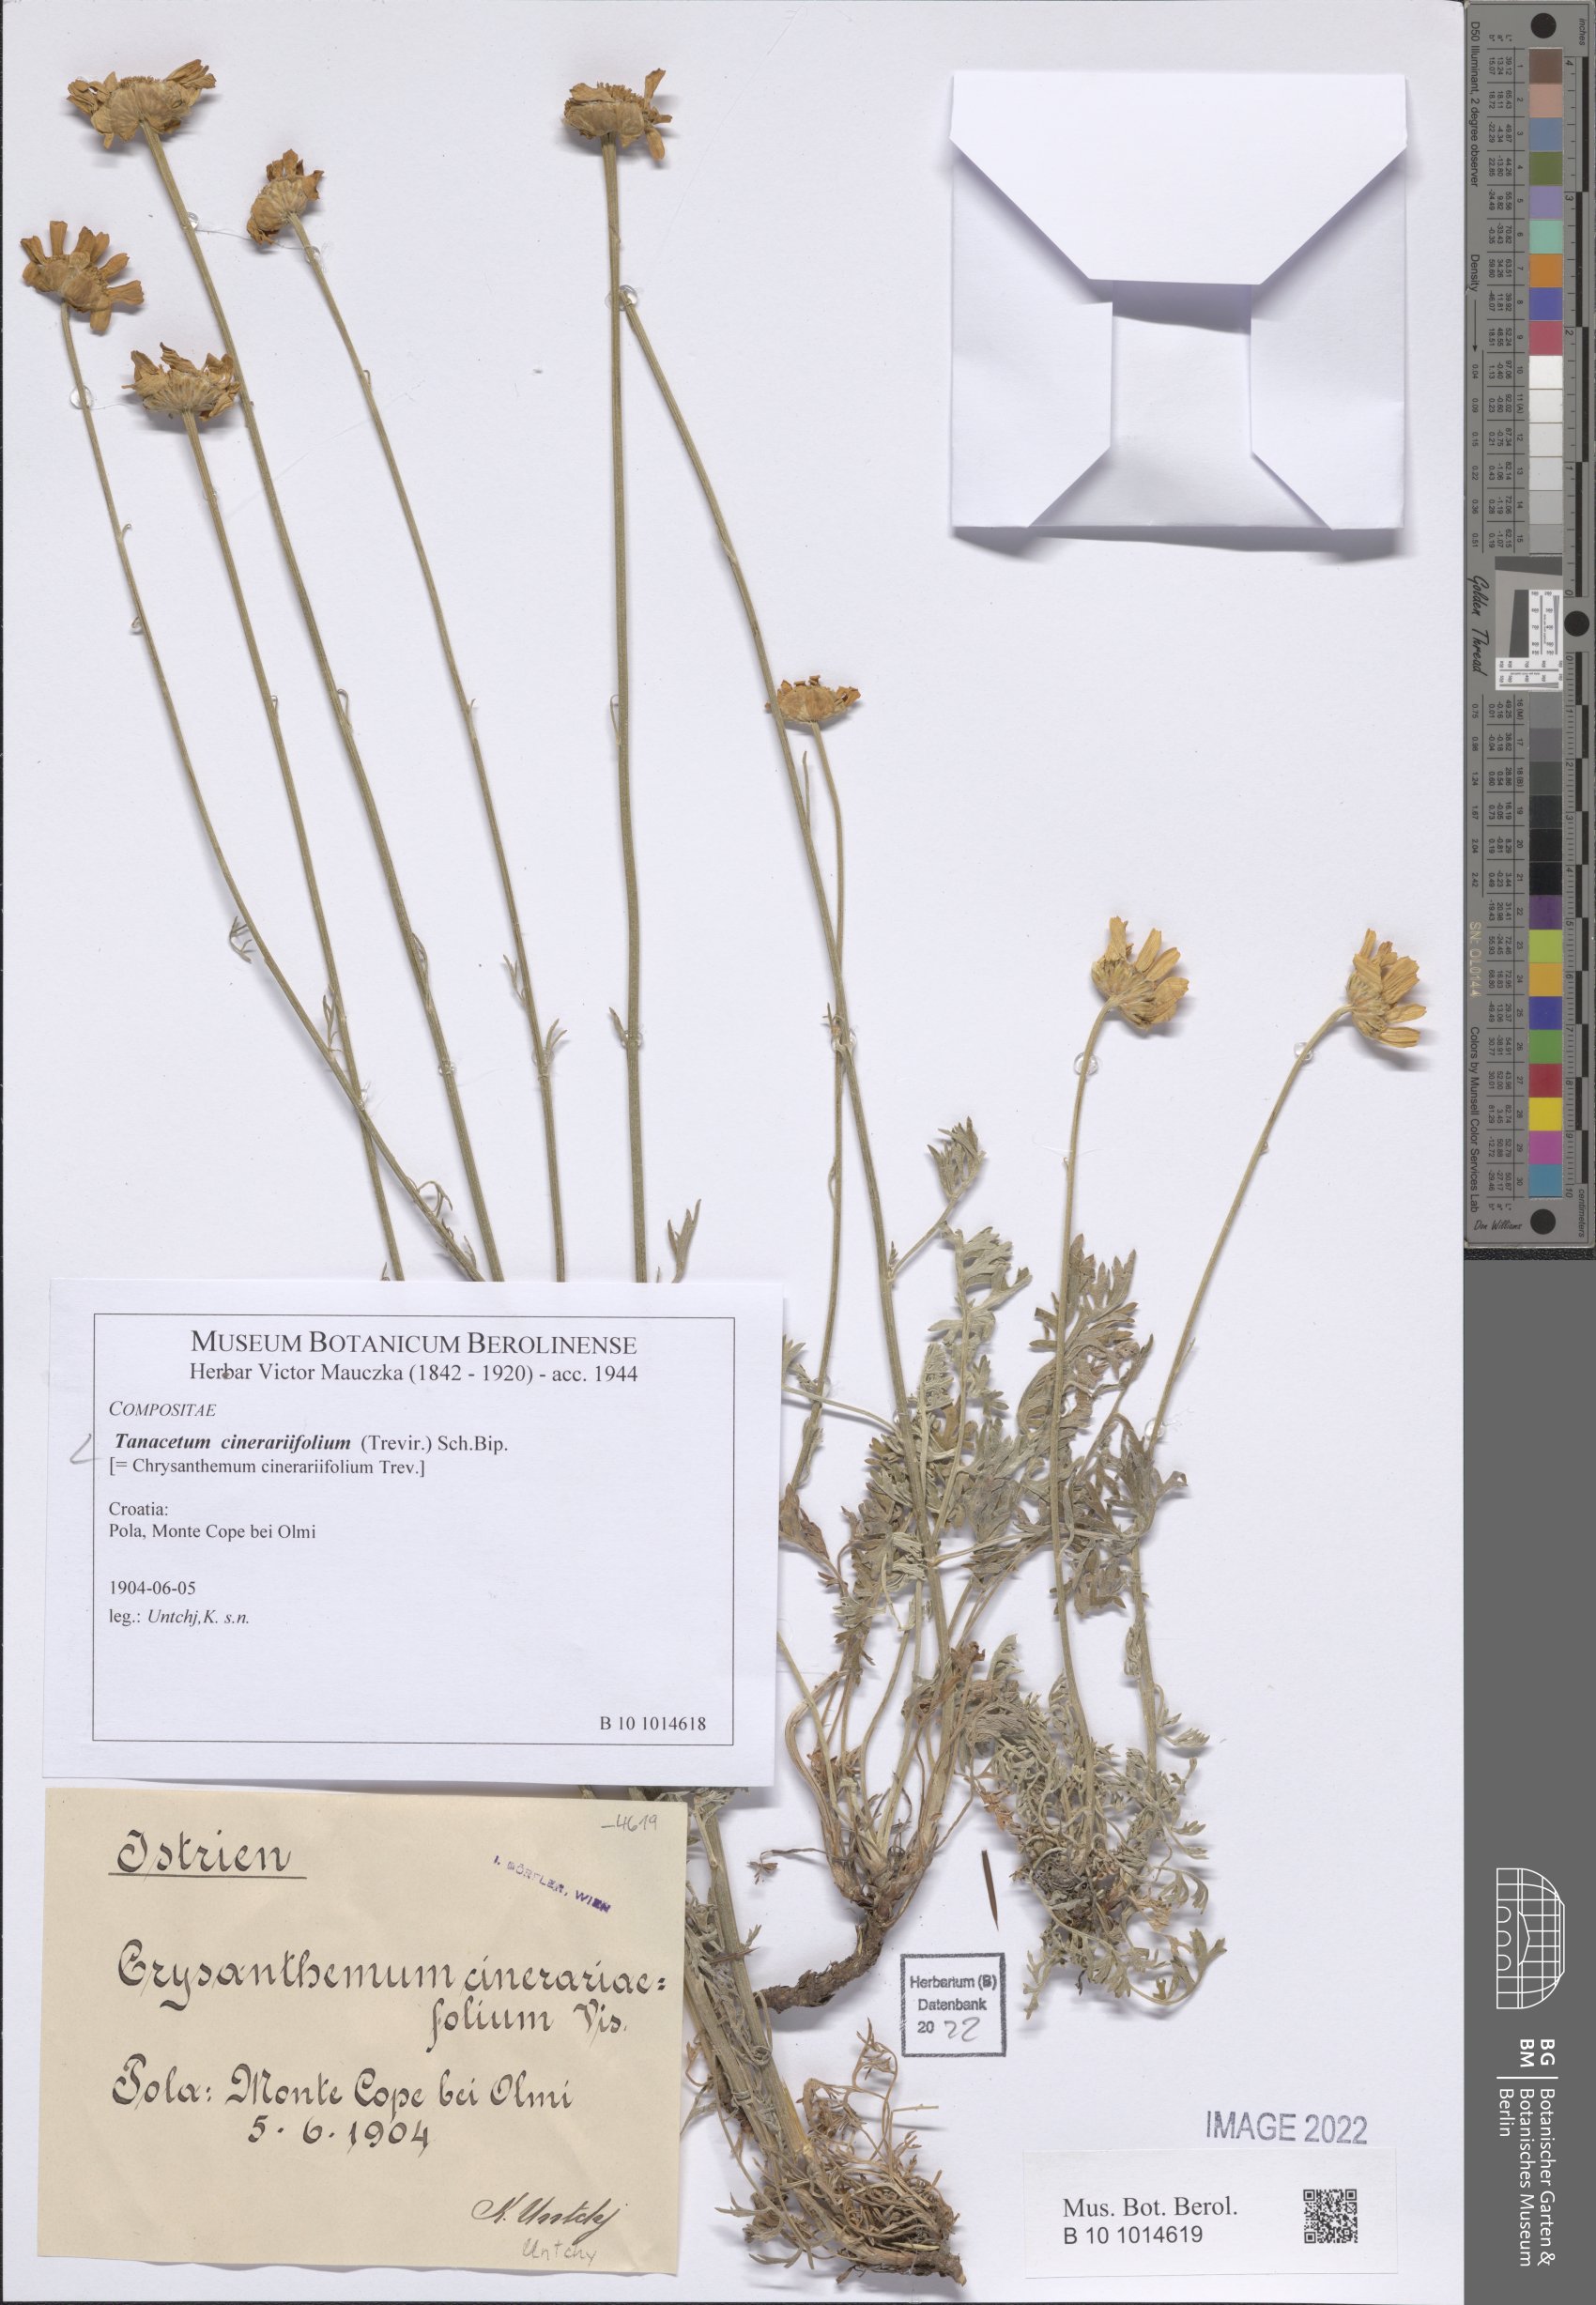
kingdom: Plantae
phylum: Tracheophyta
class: Magnoliopsida
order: Asterales
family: Asteraceae
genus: Tanacetum
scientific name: Tanacetum cinerariifolium
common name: Dalmatian pyrethrum
